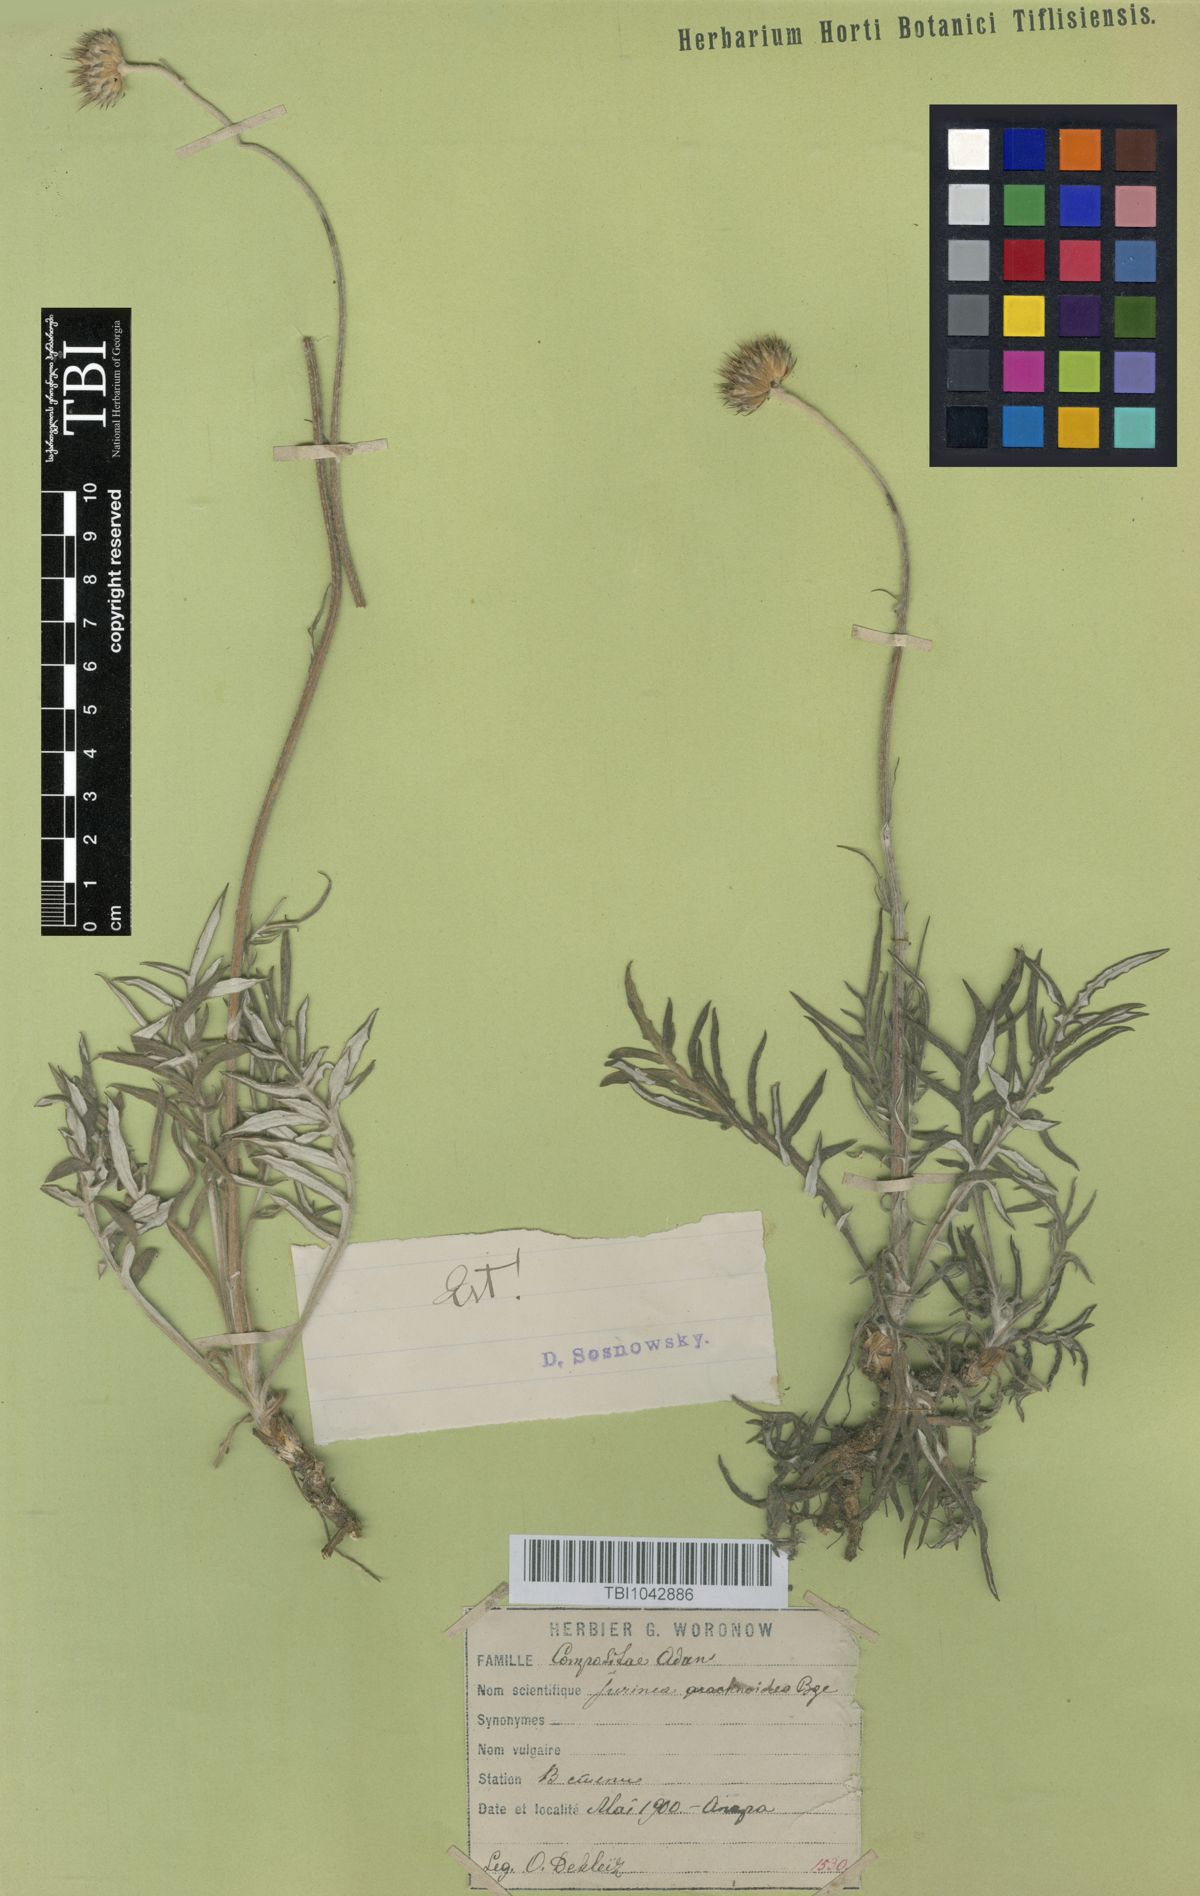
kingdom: Plantae
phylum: Tracheophyta
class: Magnoliopsida
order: Asterales
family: Asteraceae
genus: Jurinea
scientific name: Jurinea blanda
